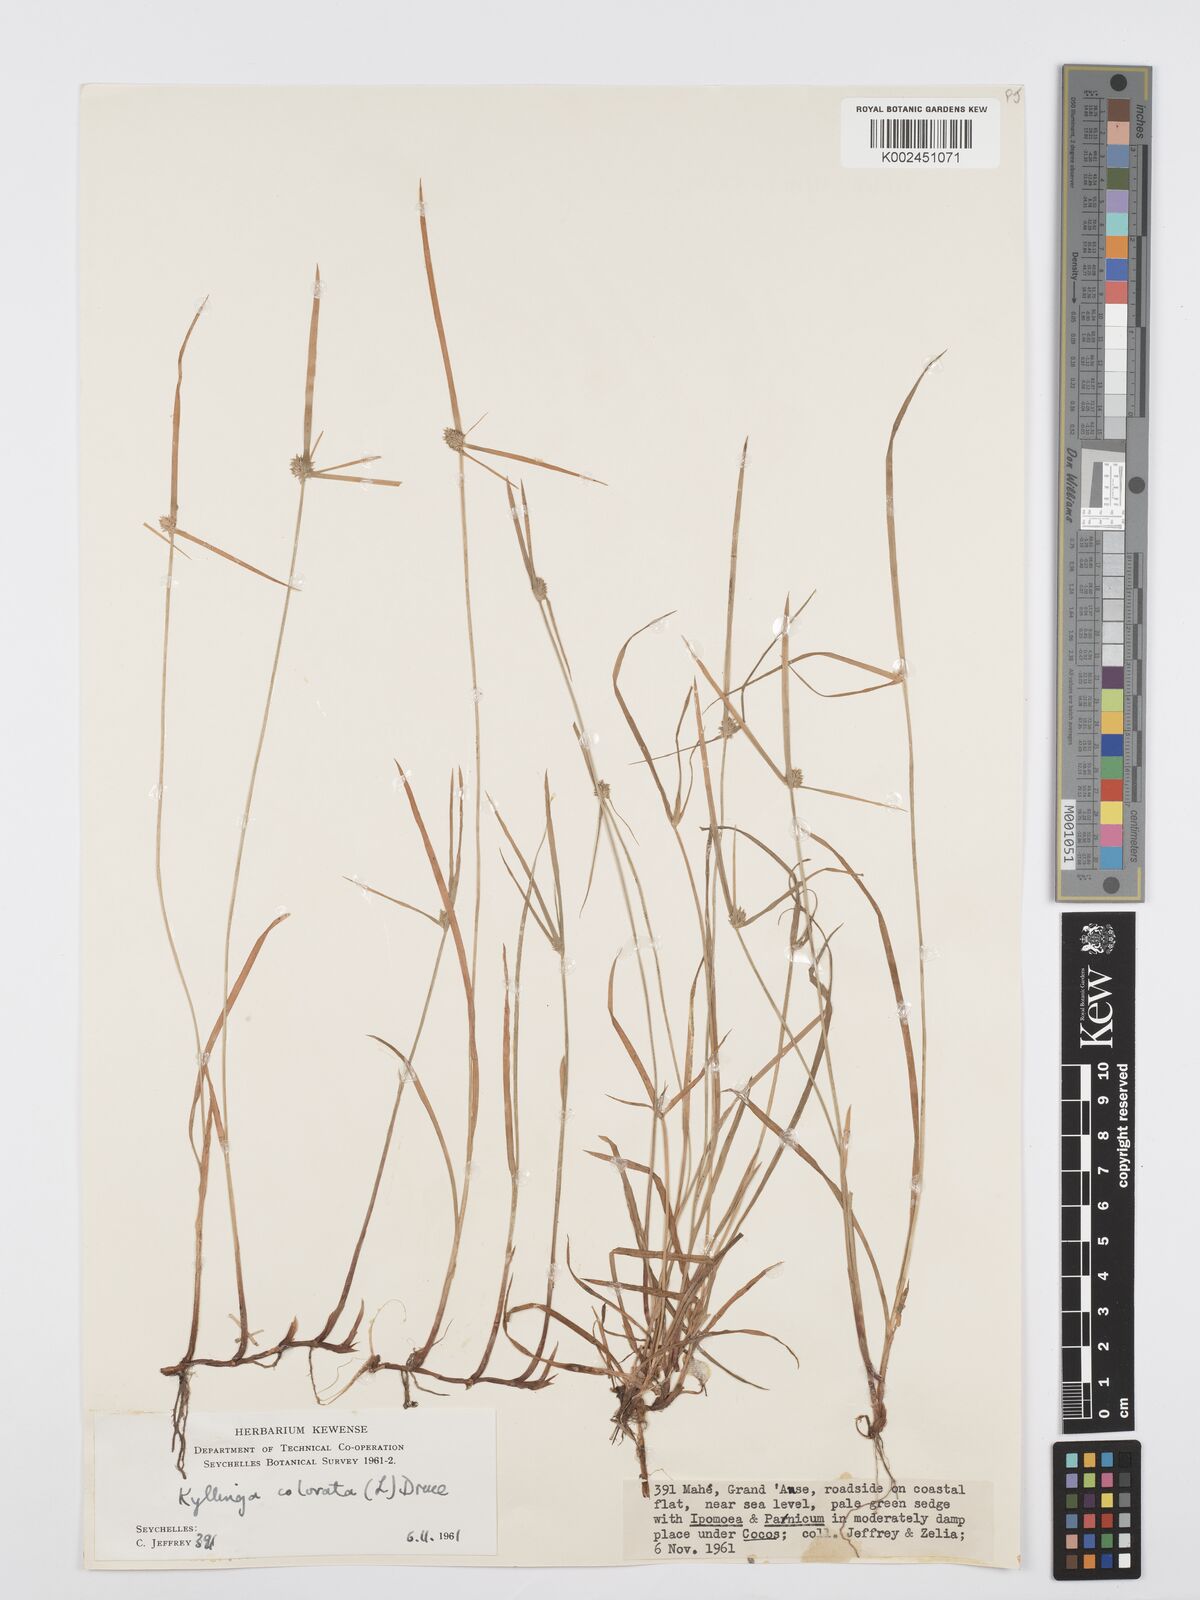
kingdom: Plantae
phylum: Tracheophyta
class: Liliopsida
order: Poales
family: Cyperaceae
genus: Cyperus
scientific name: Cyperus brevifolius
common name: Globe kyllinga
